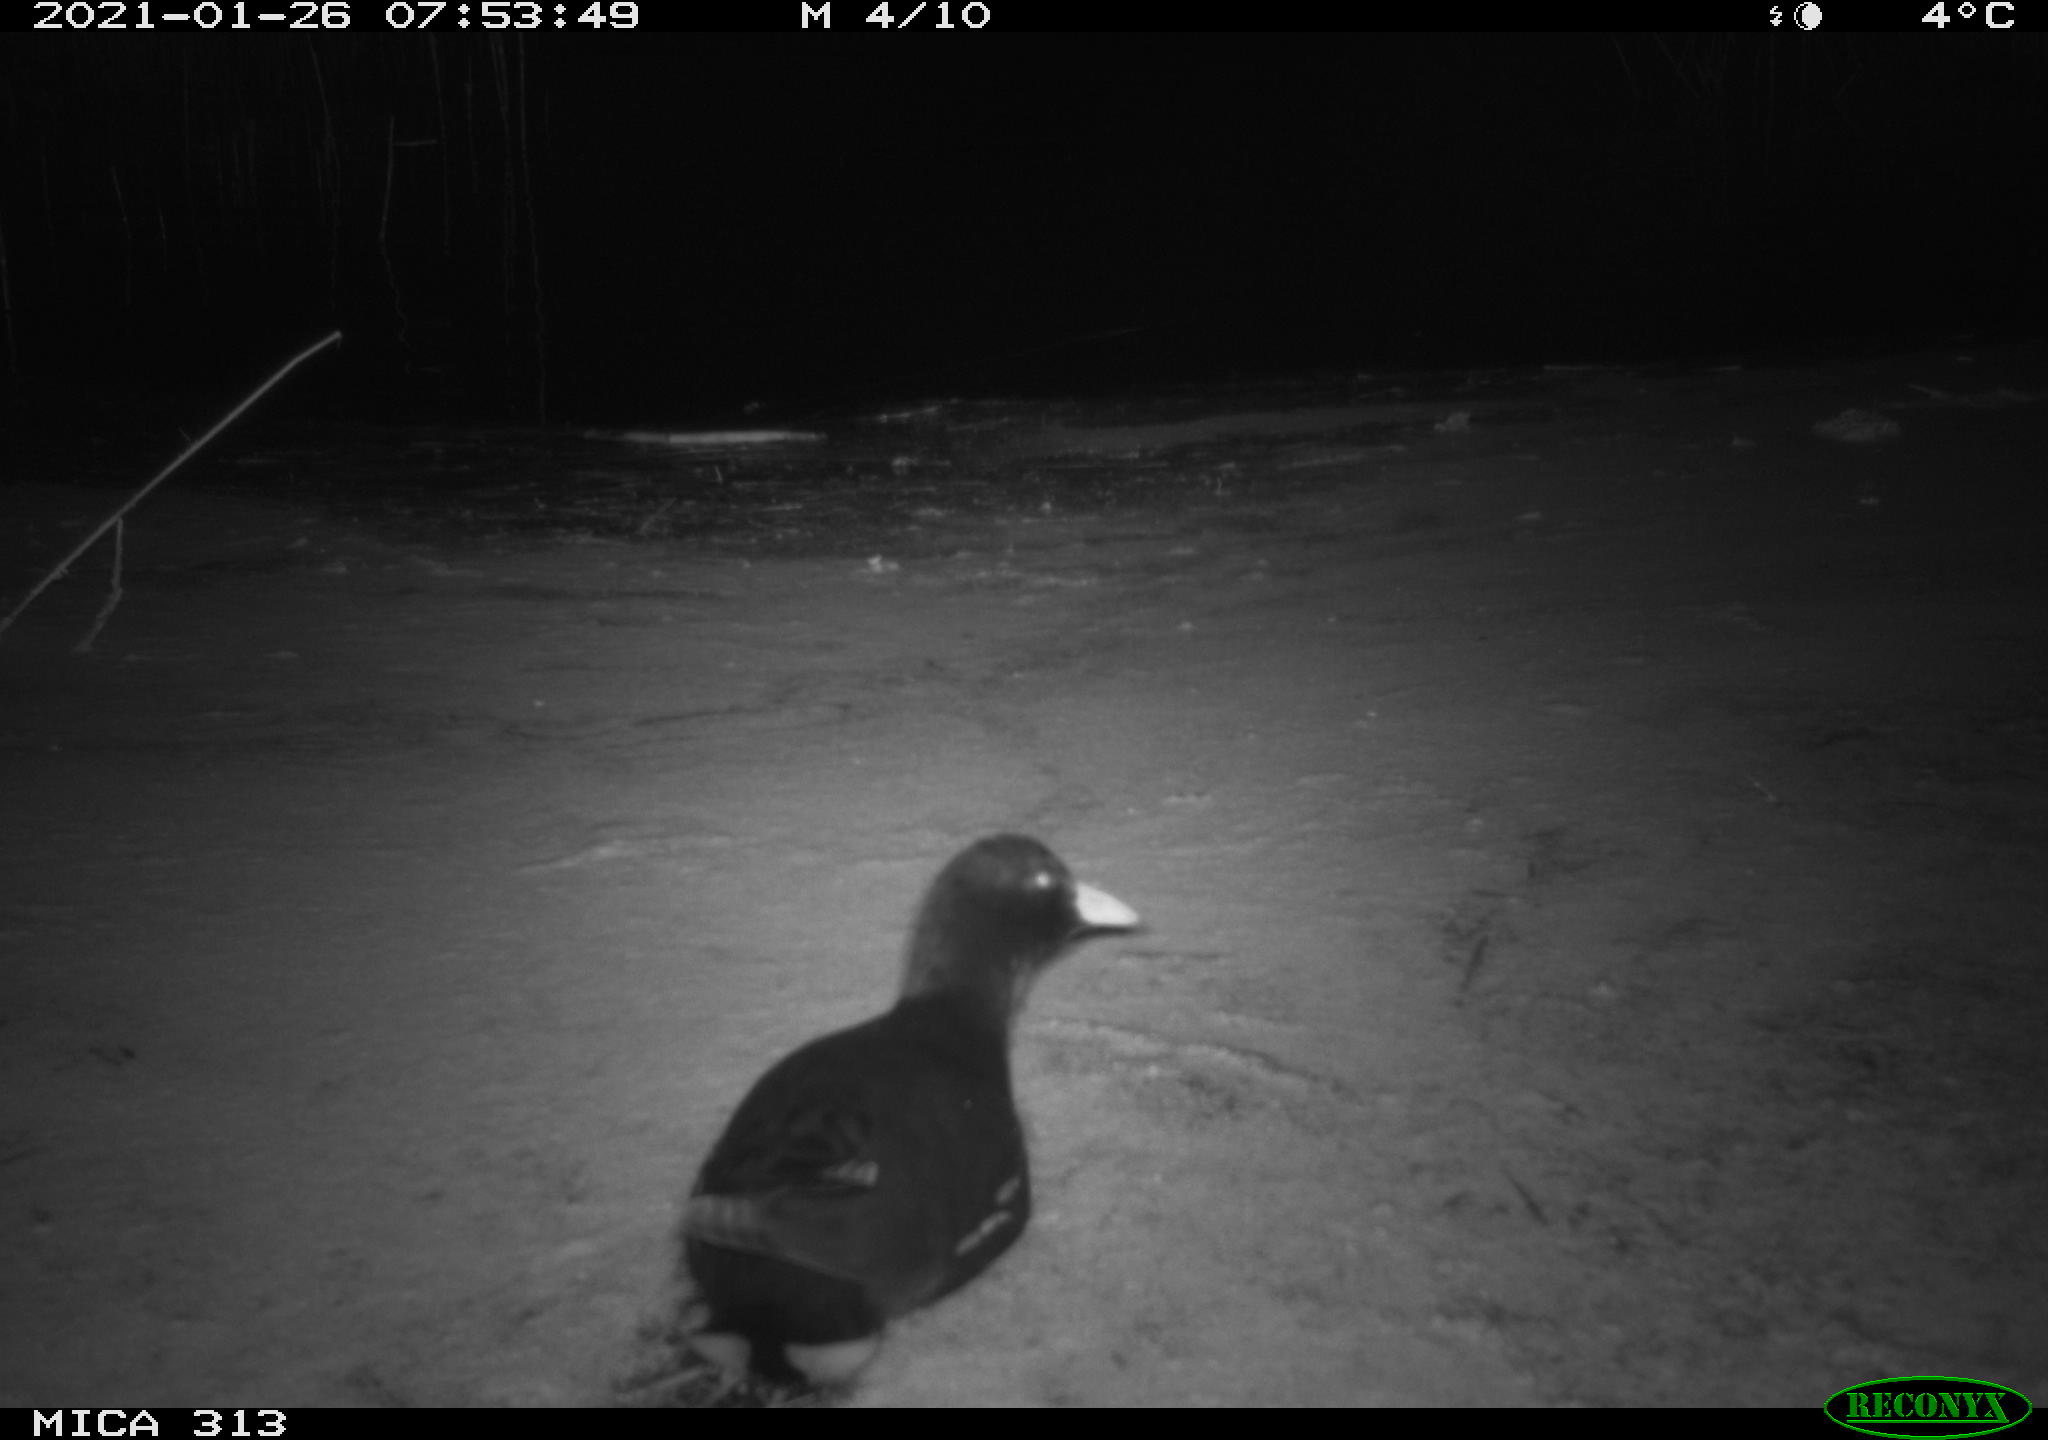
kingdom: Animalia
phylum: Chordata
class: Aves
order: Gruiformes
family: Rallidae
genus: Gallinula
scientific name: Gallinula chloropus
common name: Common moorhen
